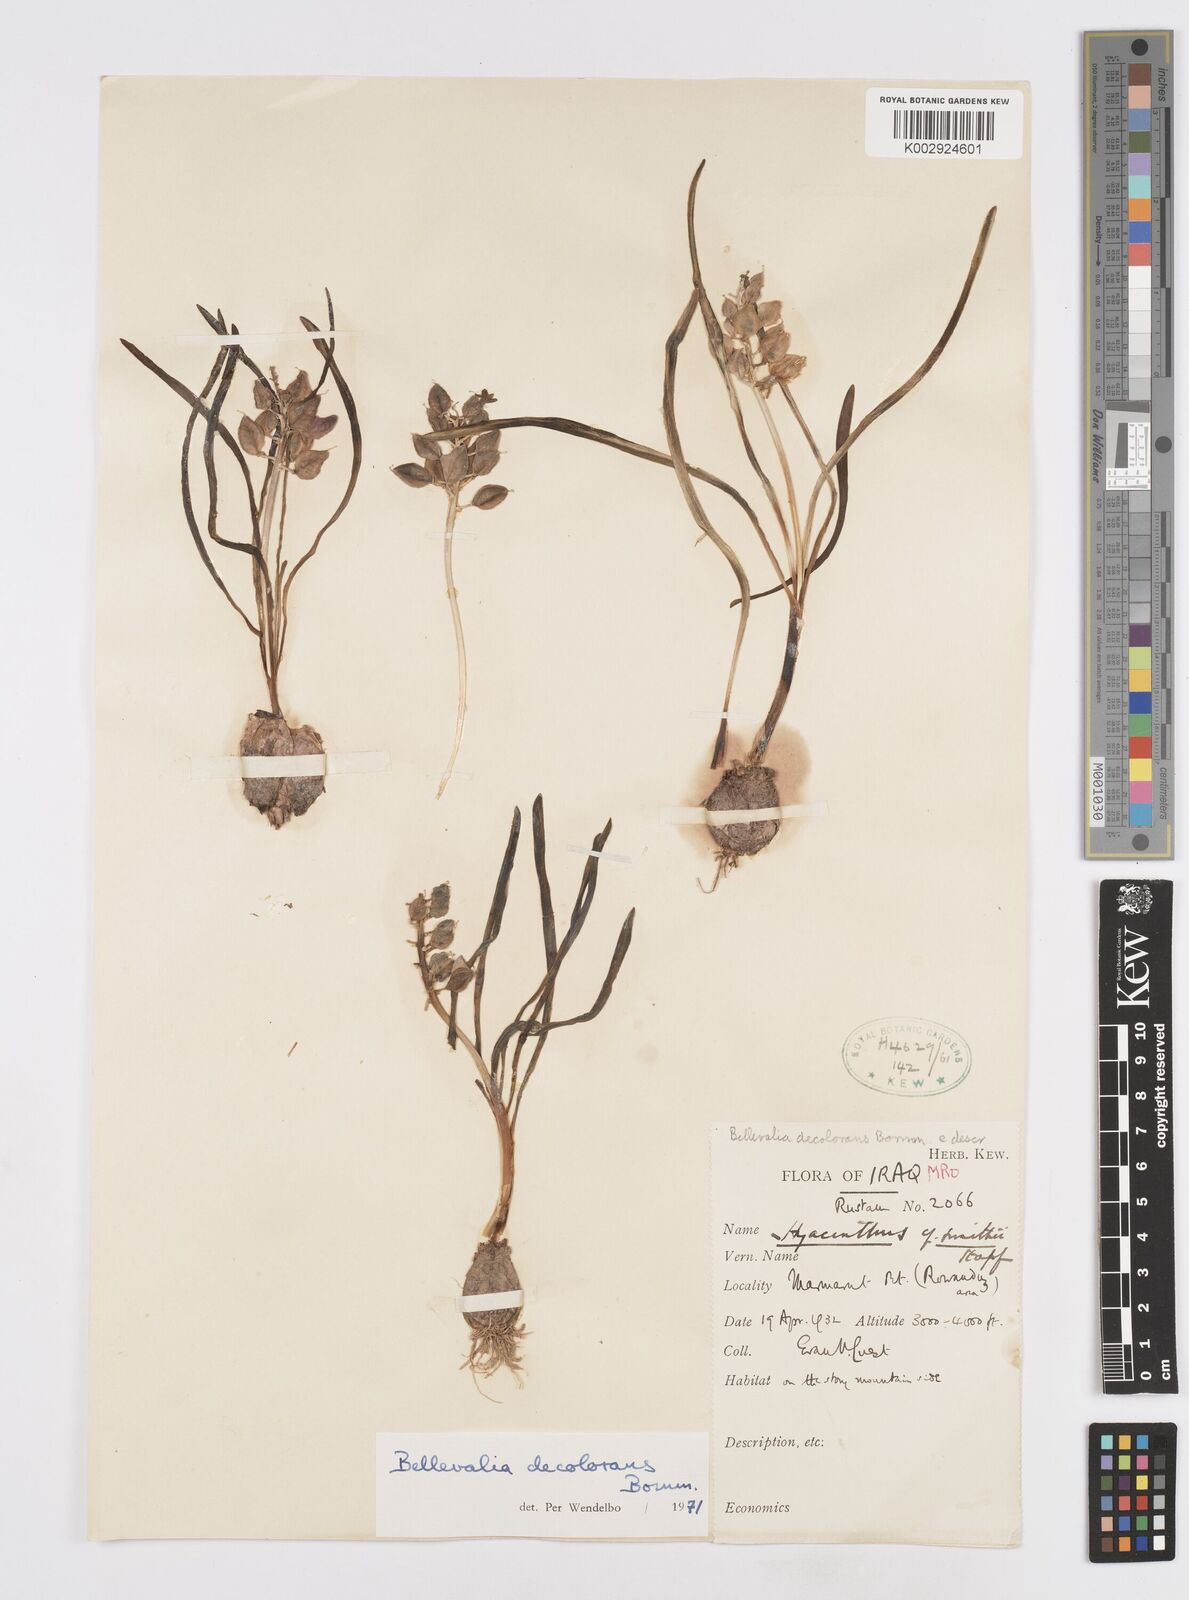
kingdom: Plantae
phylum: Tracheophyta
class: Liliopsida
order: Asparagales
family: Asparagaceae
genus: Bellevalia
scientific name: Bellevalia decolorans
